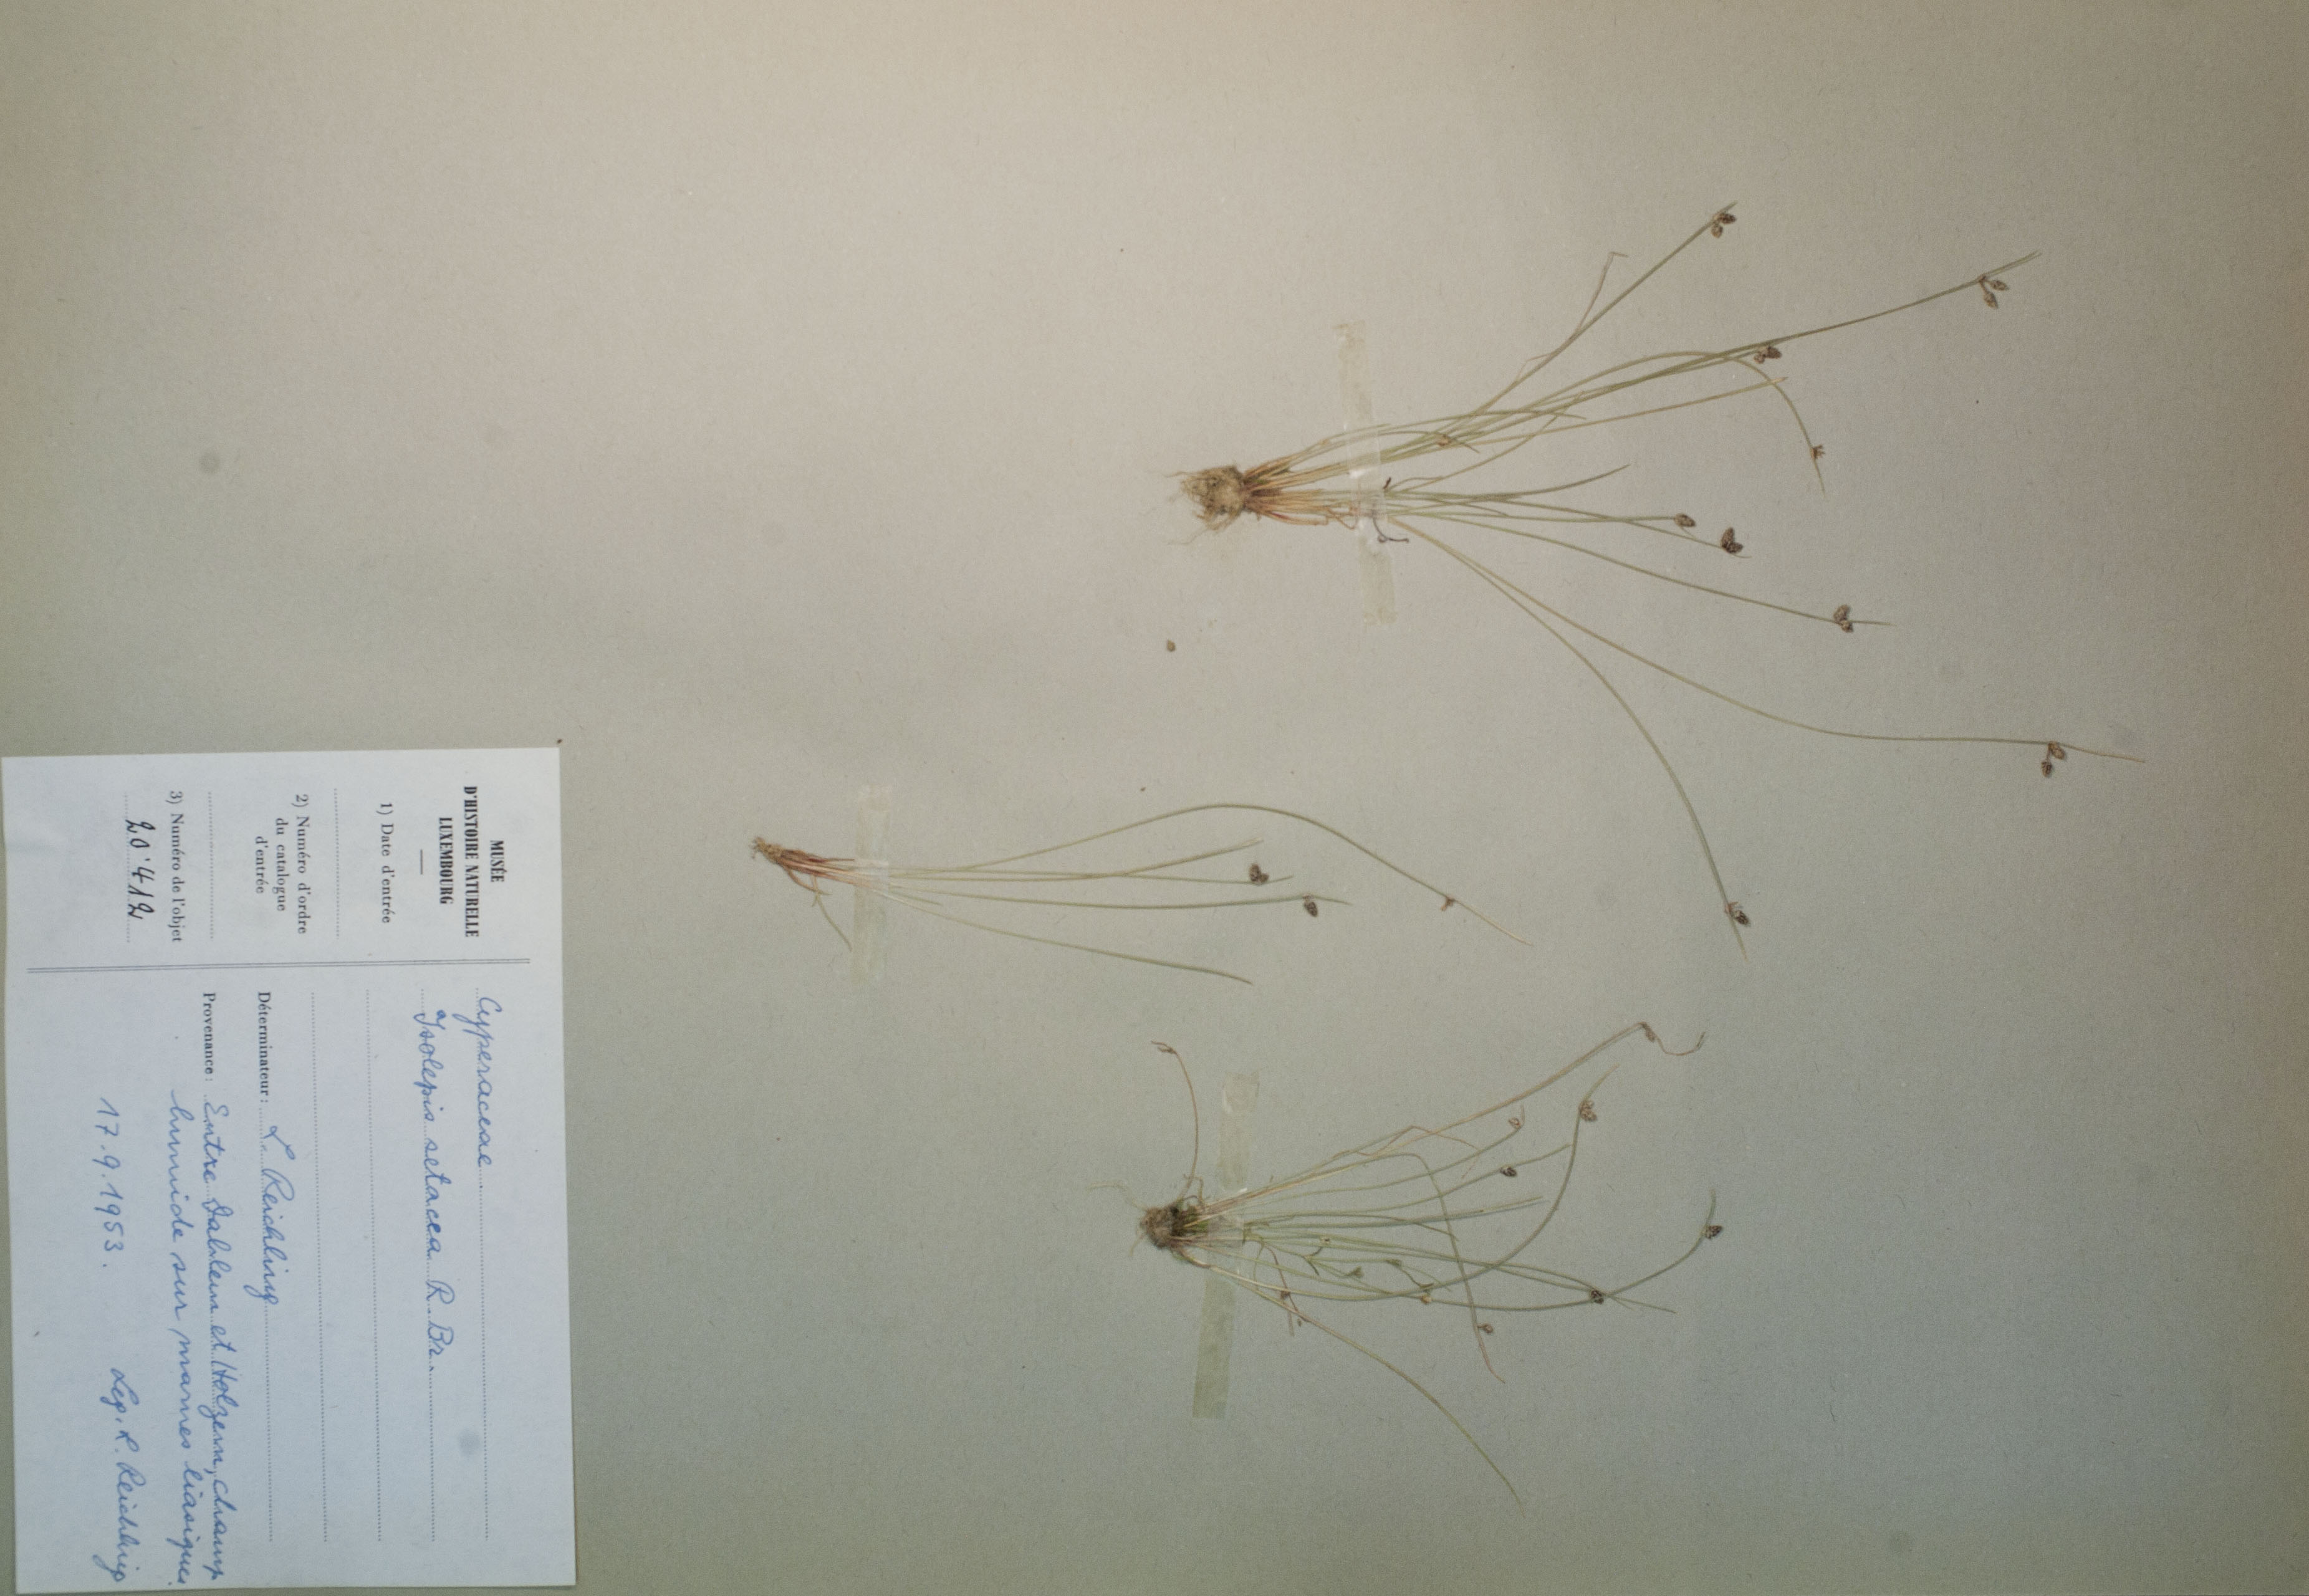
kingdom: Plantae
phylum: Tracheophyta
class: Liliopsida
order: Poales
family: Cyperaceae
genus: Isolepis
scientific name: Isolepis setacea
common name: Bristle club-rush
